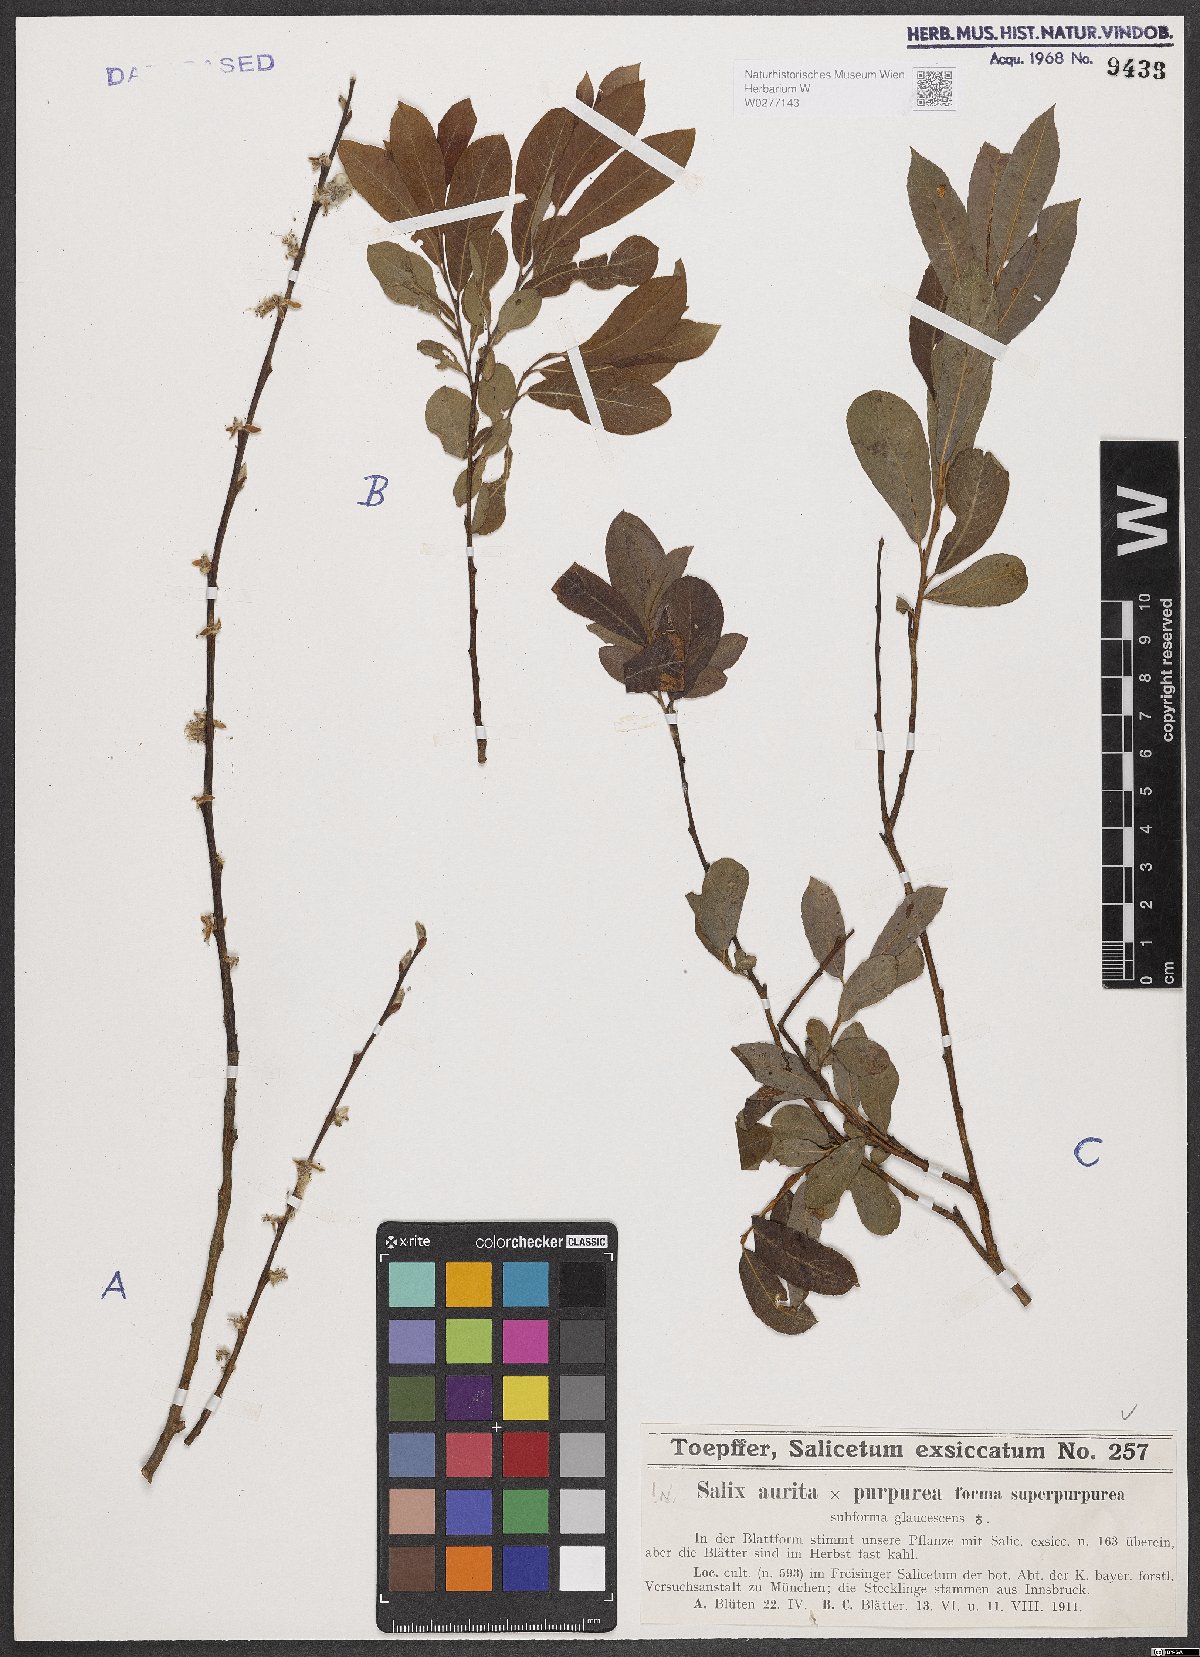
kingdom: Plantae
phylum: Tracheophyta
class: Magnoliopsida
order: Malpighiales
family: Salicaceae
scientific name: Salicaceae
